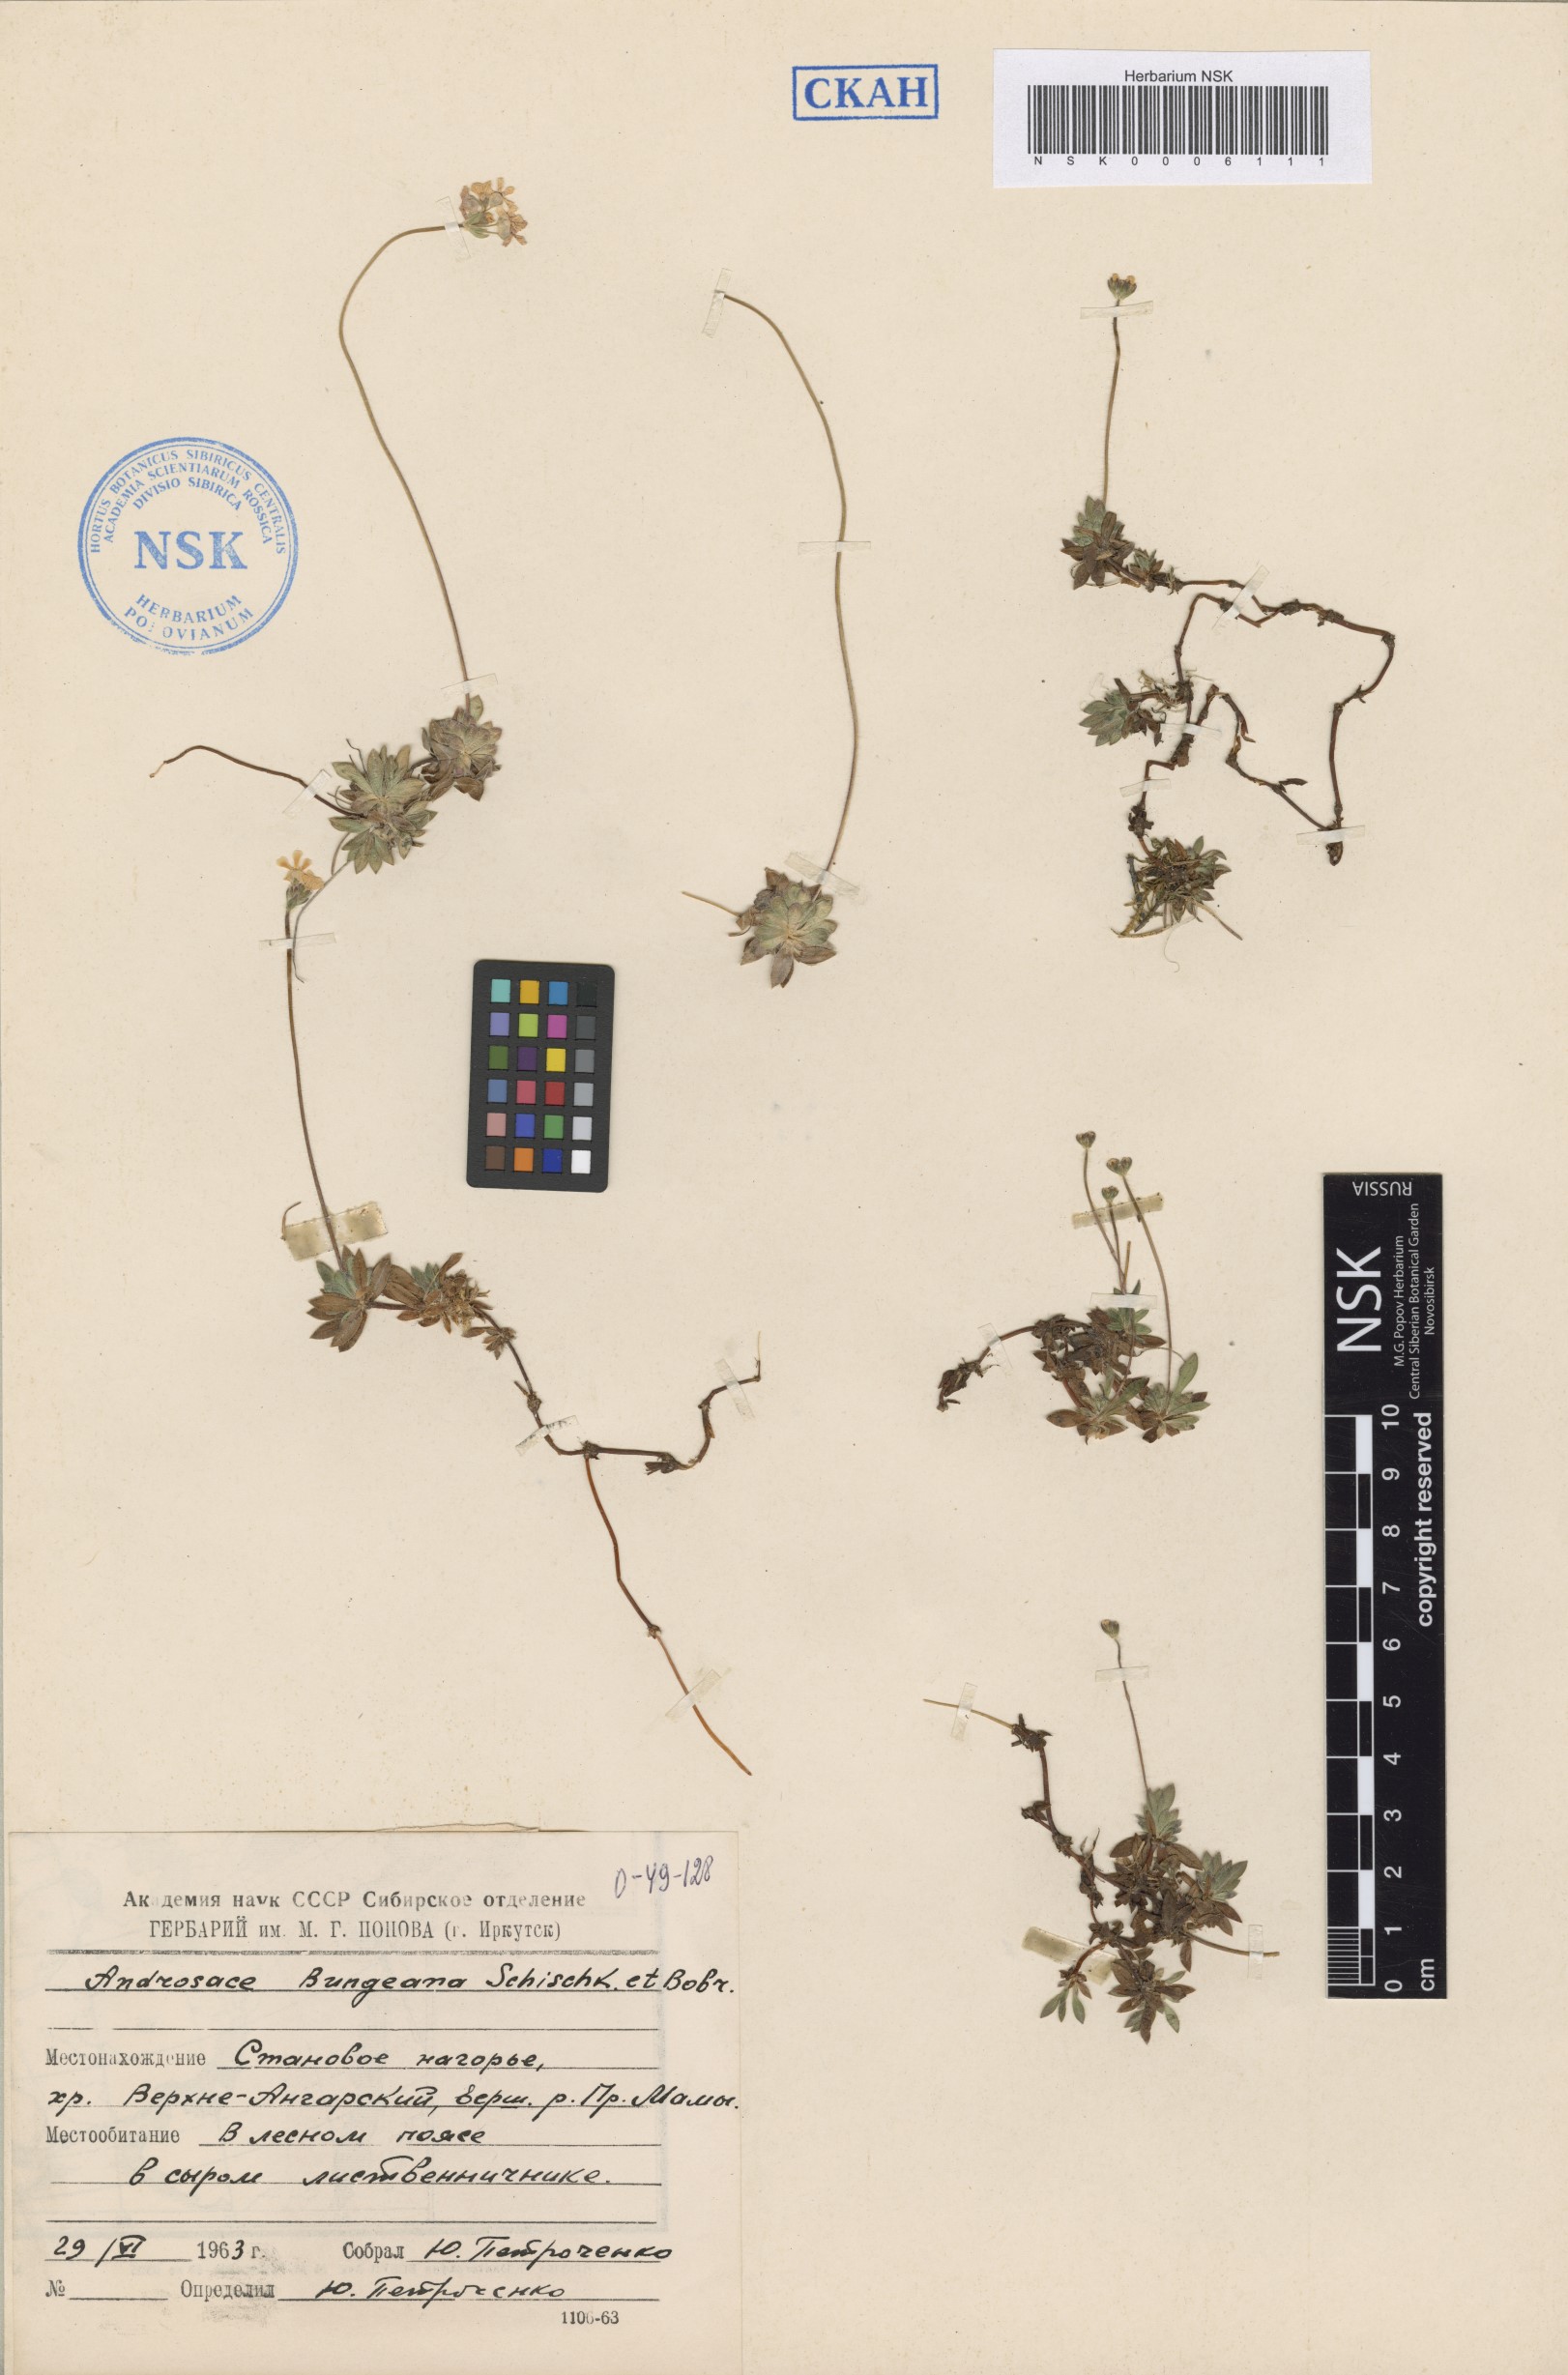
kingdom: Plantae
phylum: Tracheophyta
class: Magnoliopsida
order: Ericales
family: Primulaceae
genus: Androsace
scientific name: Androsace bungeana
